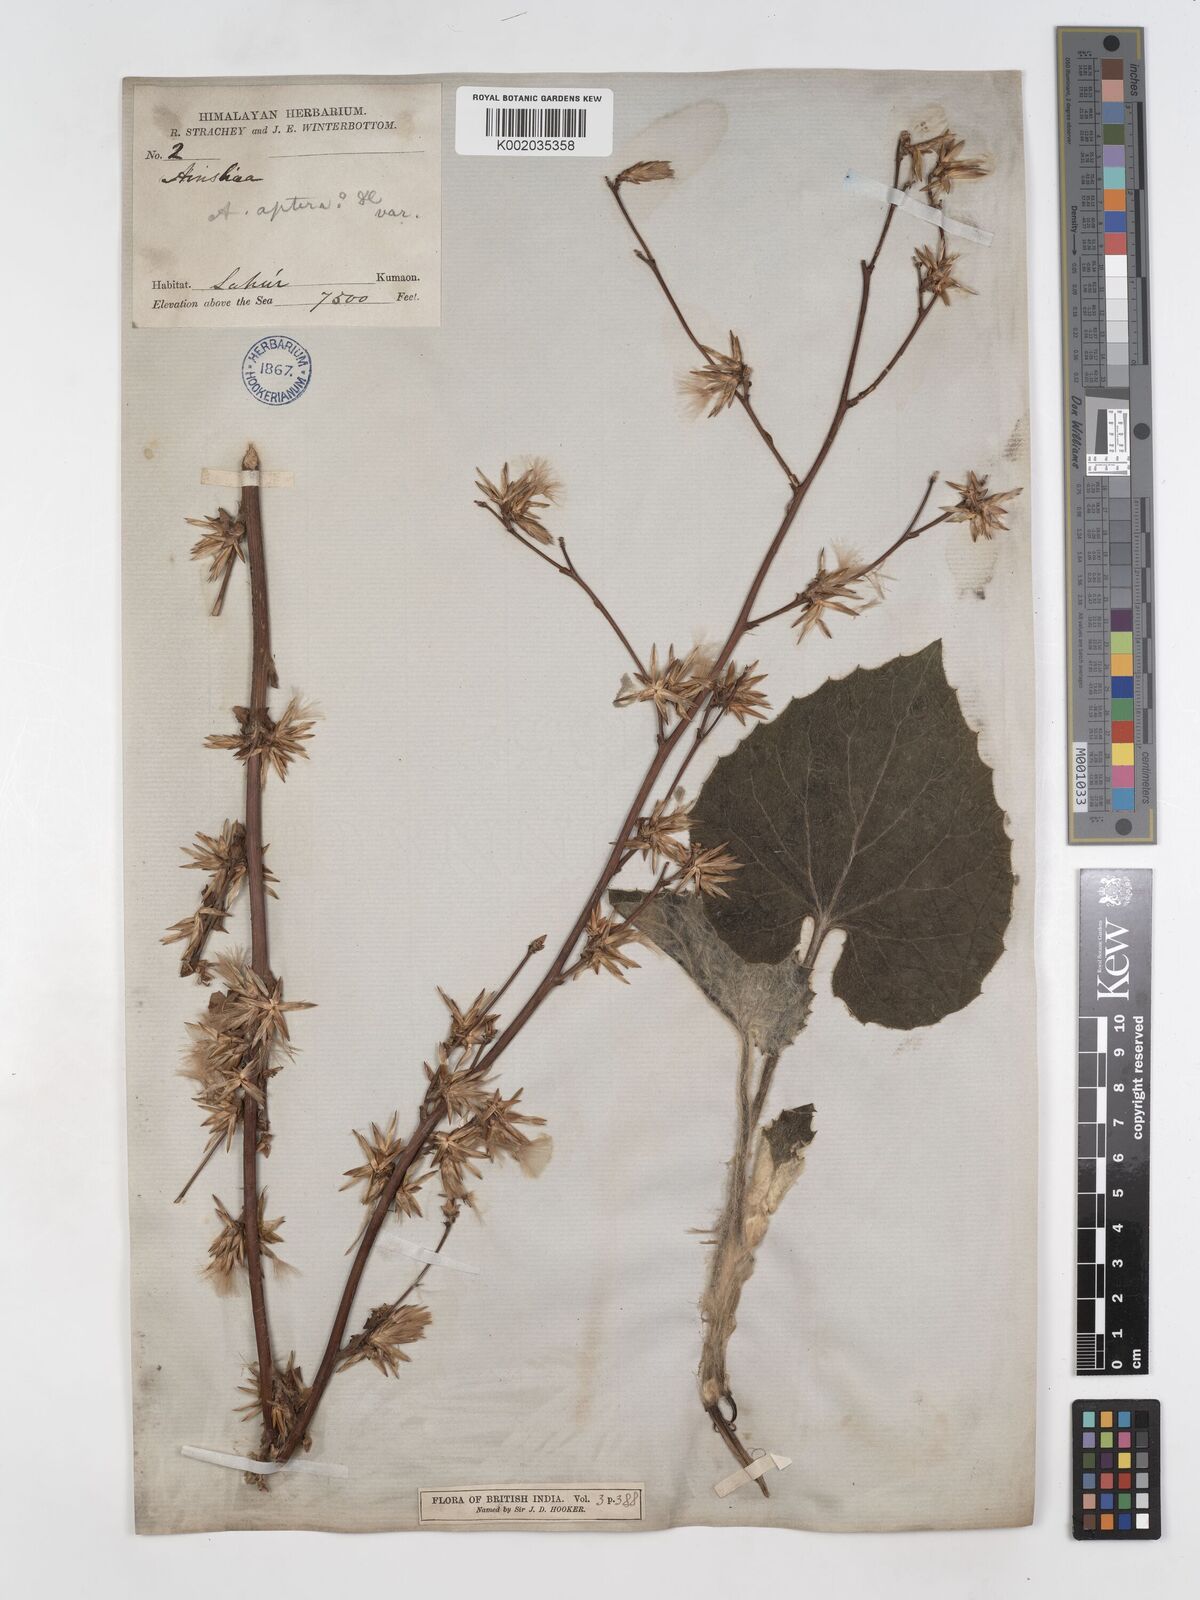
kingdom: Plantae
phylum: Tracheophyta
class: Magnoliopsida
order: Asterales
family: Asteraceae
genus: Ainsliaea
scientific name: Ainsliaea aptera
